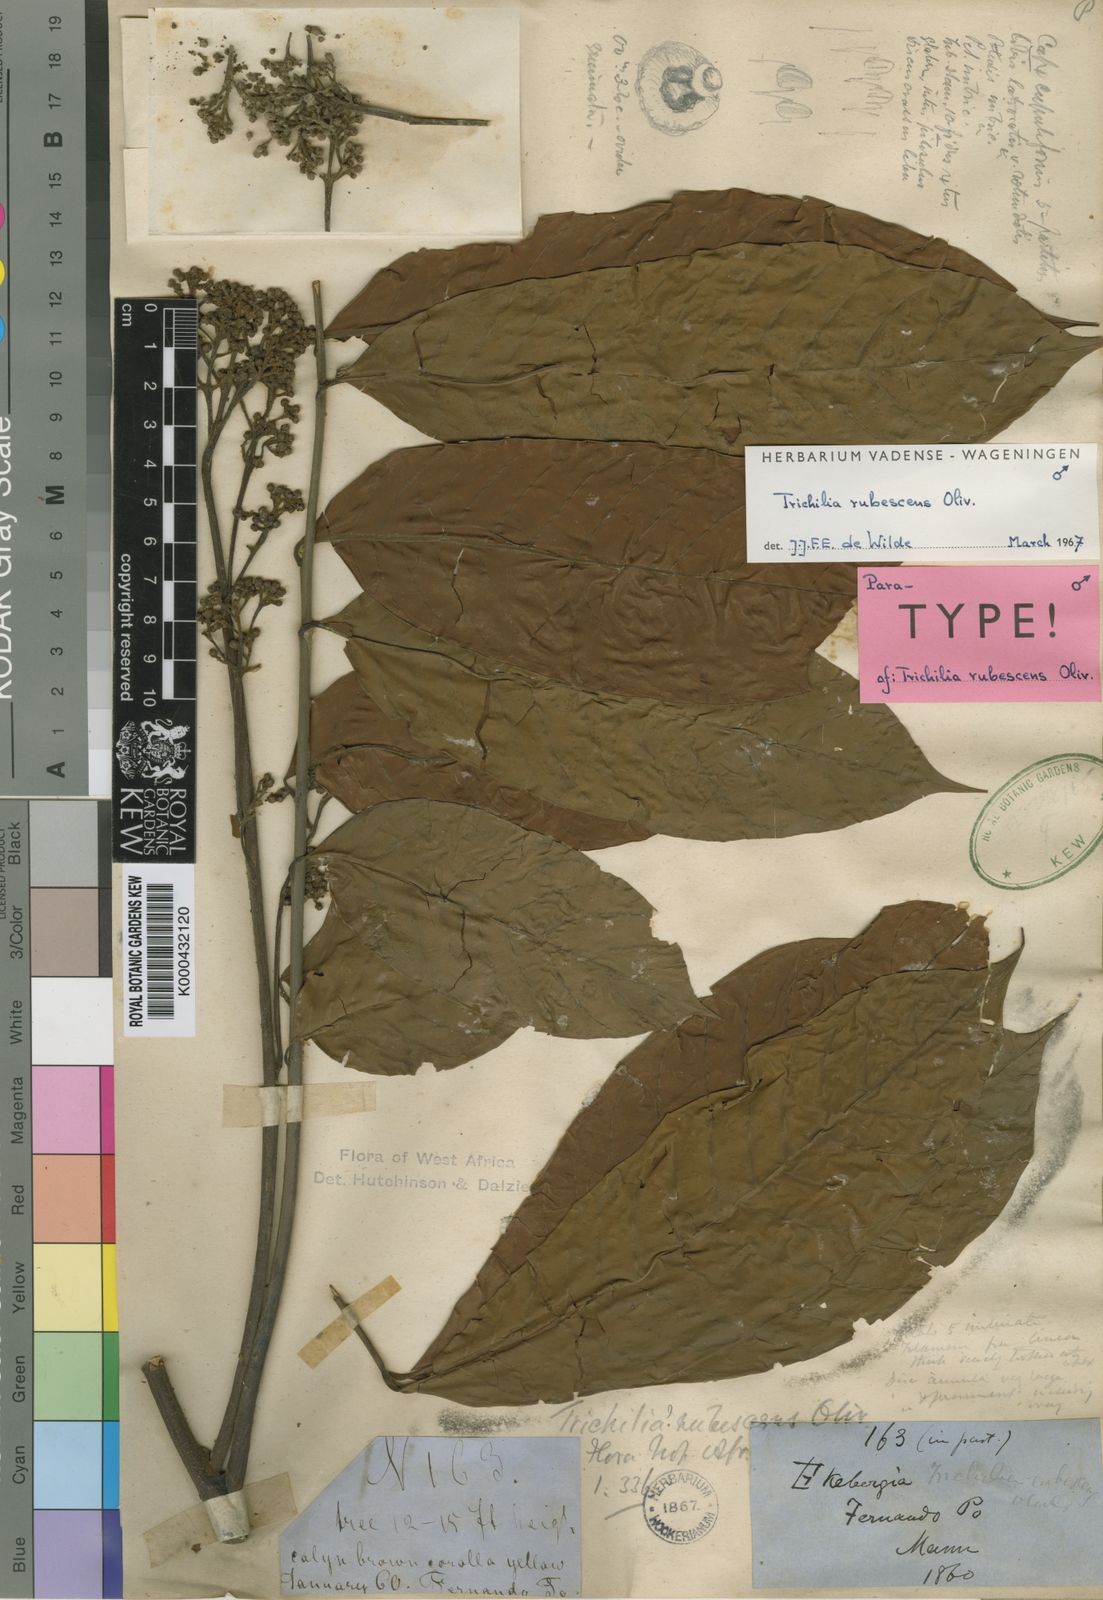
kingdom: Plantae
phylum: Tracheophyta
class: Magnoliopsida
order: Sapindales
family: Meliaceae
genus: Trichilia
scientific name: Trichilia rubescens
